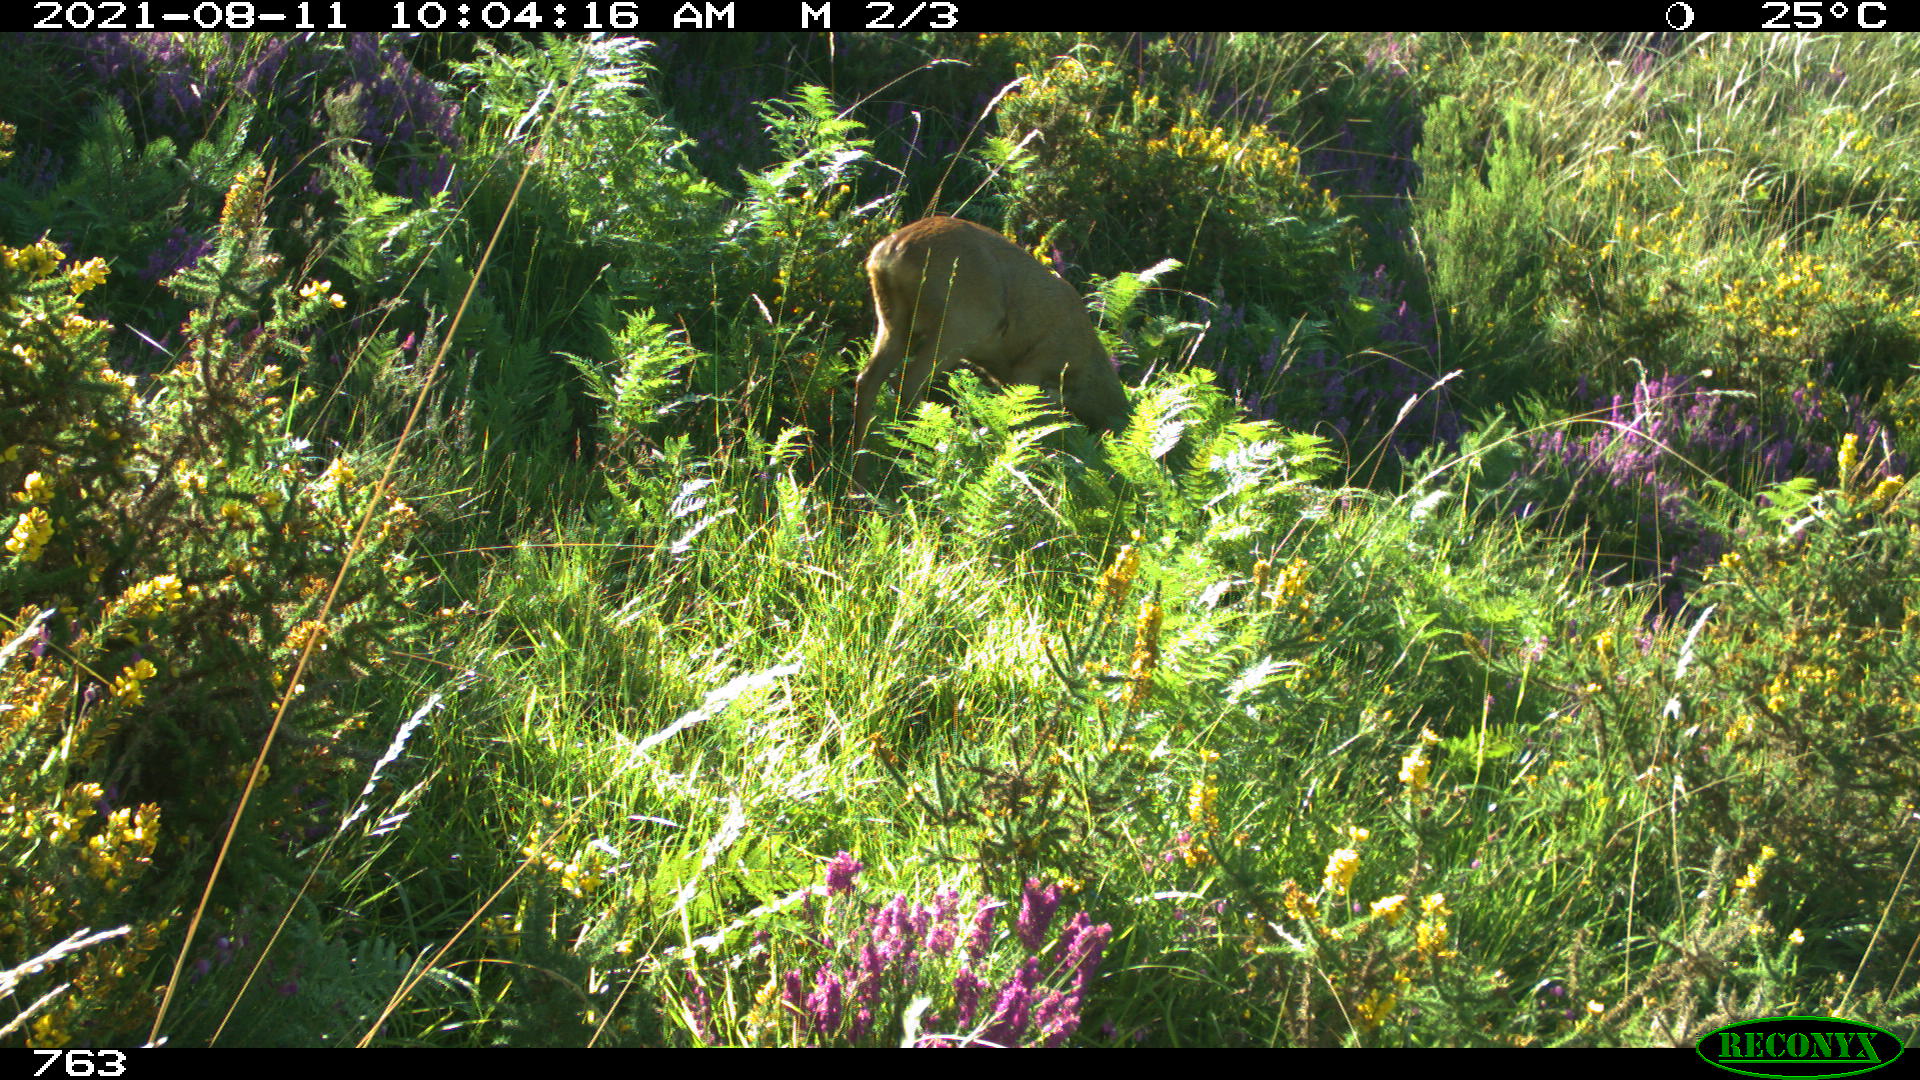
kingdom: Animalia
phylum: Chordata
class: Mammalia
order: Artiodactyla
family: Cervidae
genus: Capreolus
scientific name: Capreolus capreolus
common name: Western roe deer
